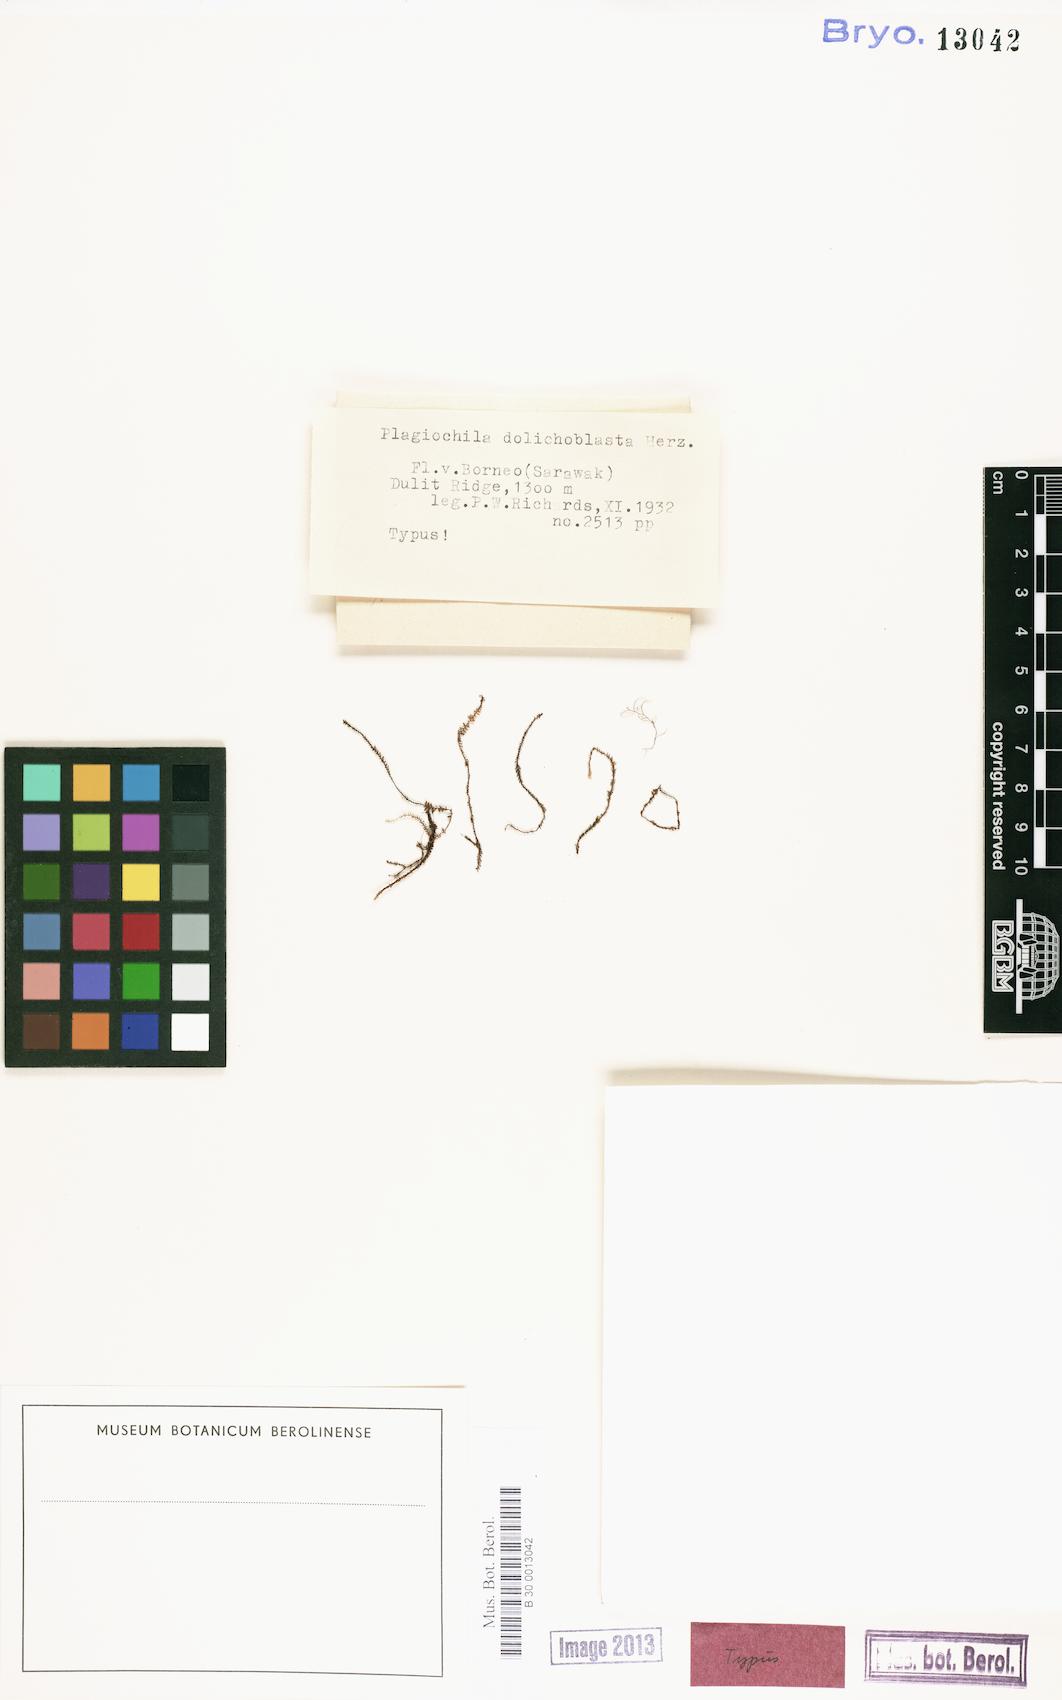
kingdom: Plantae
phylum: Marchantiophyta
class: Jungermanniopsida
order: Jungermanniales
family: Plagiochilaceae
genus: Plagiochila
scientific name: Plagiochila dolichoblasta
